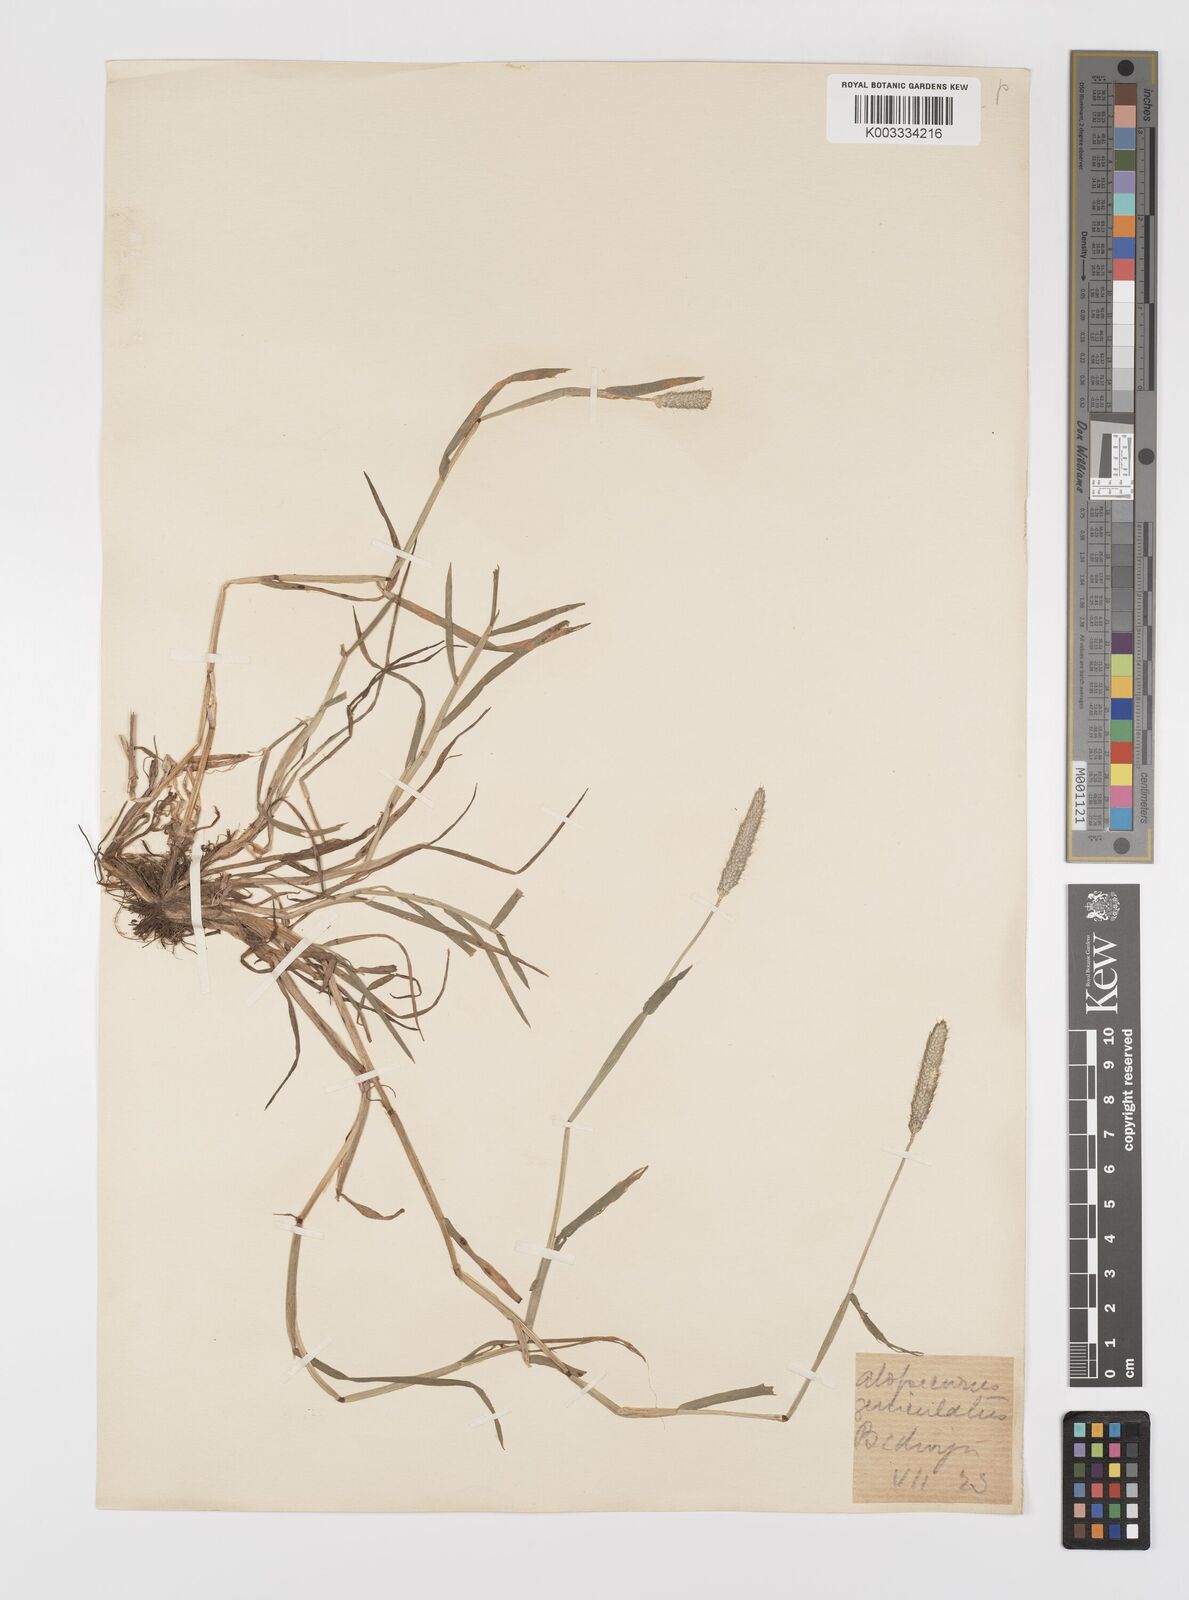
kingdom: Plantae
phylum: Tracheophyta
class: Liliopsida
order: Poales
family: Poaceae
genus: Alopecurus
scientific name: Alopecurus geniculatus
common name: Water foxtail
